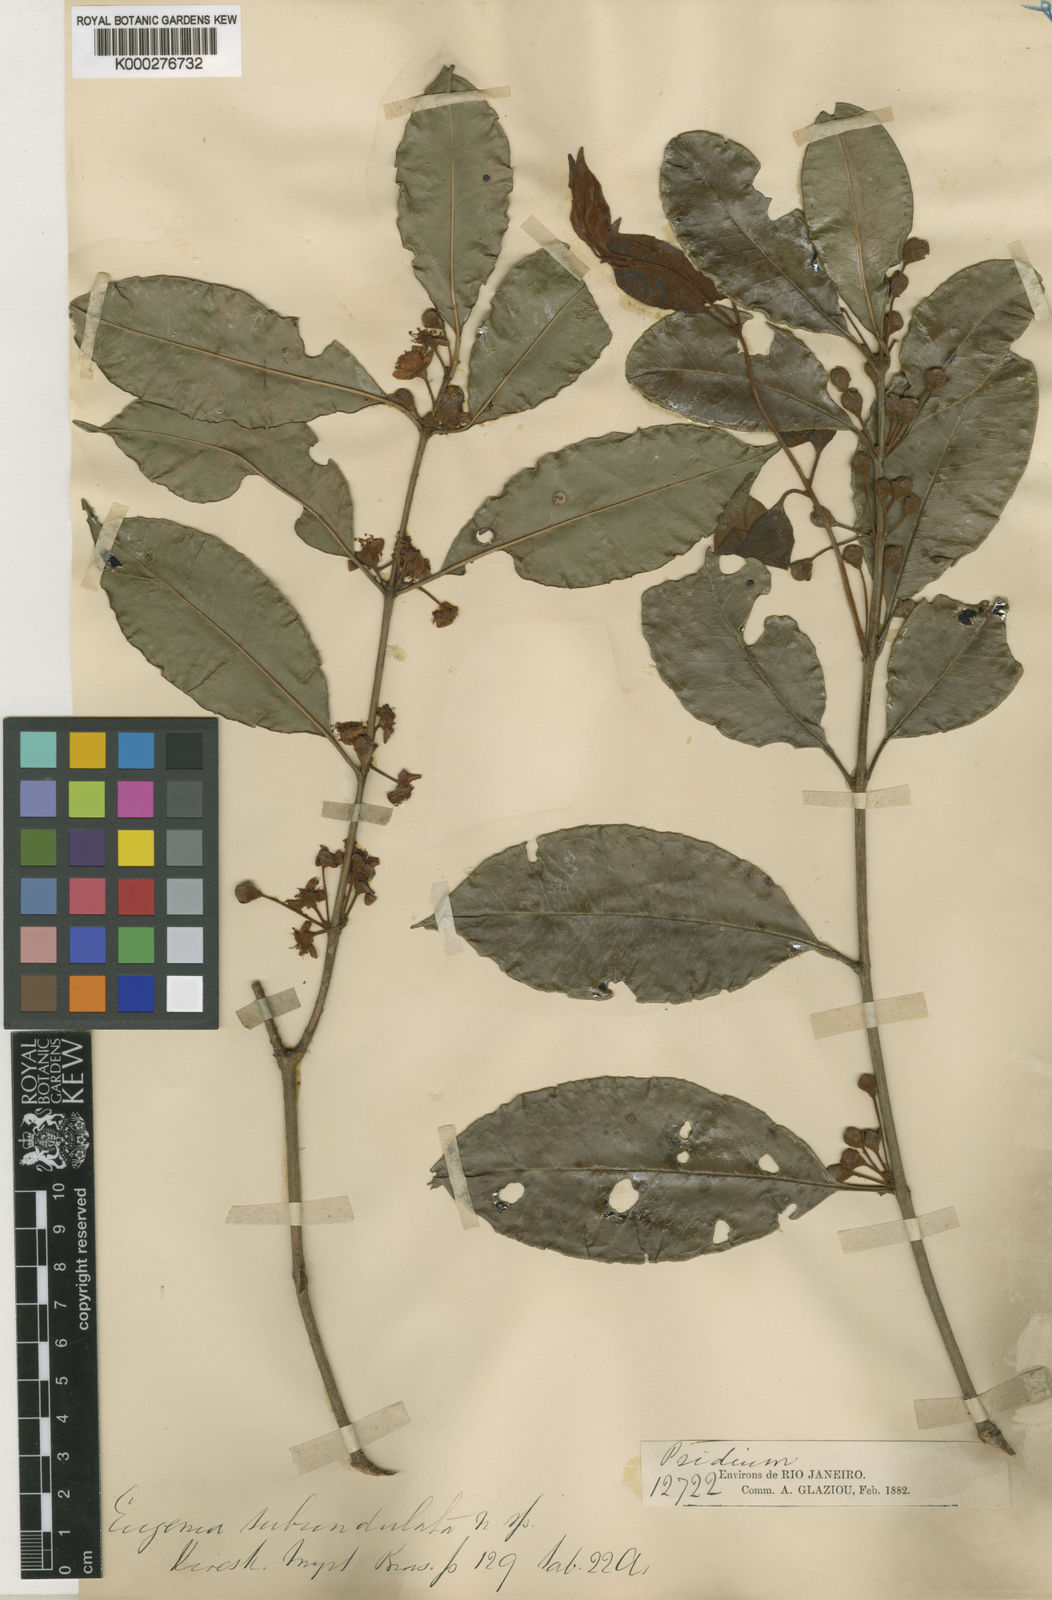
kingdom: Plantae
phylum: Tracheophyta
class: Magnoliopsida
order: Myrtales
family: Myrtaceae
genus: Eugenia
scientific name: Eugenia subundulata
